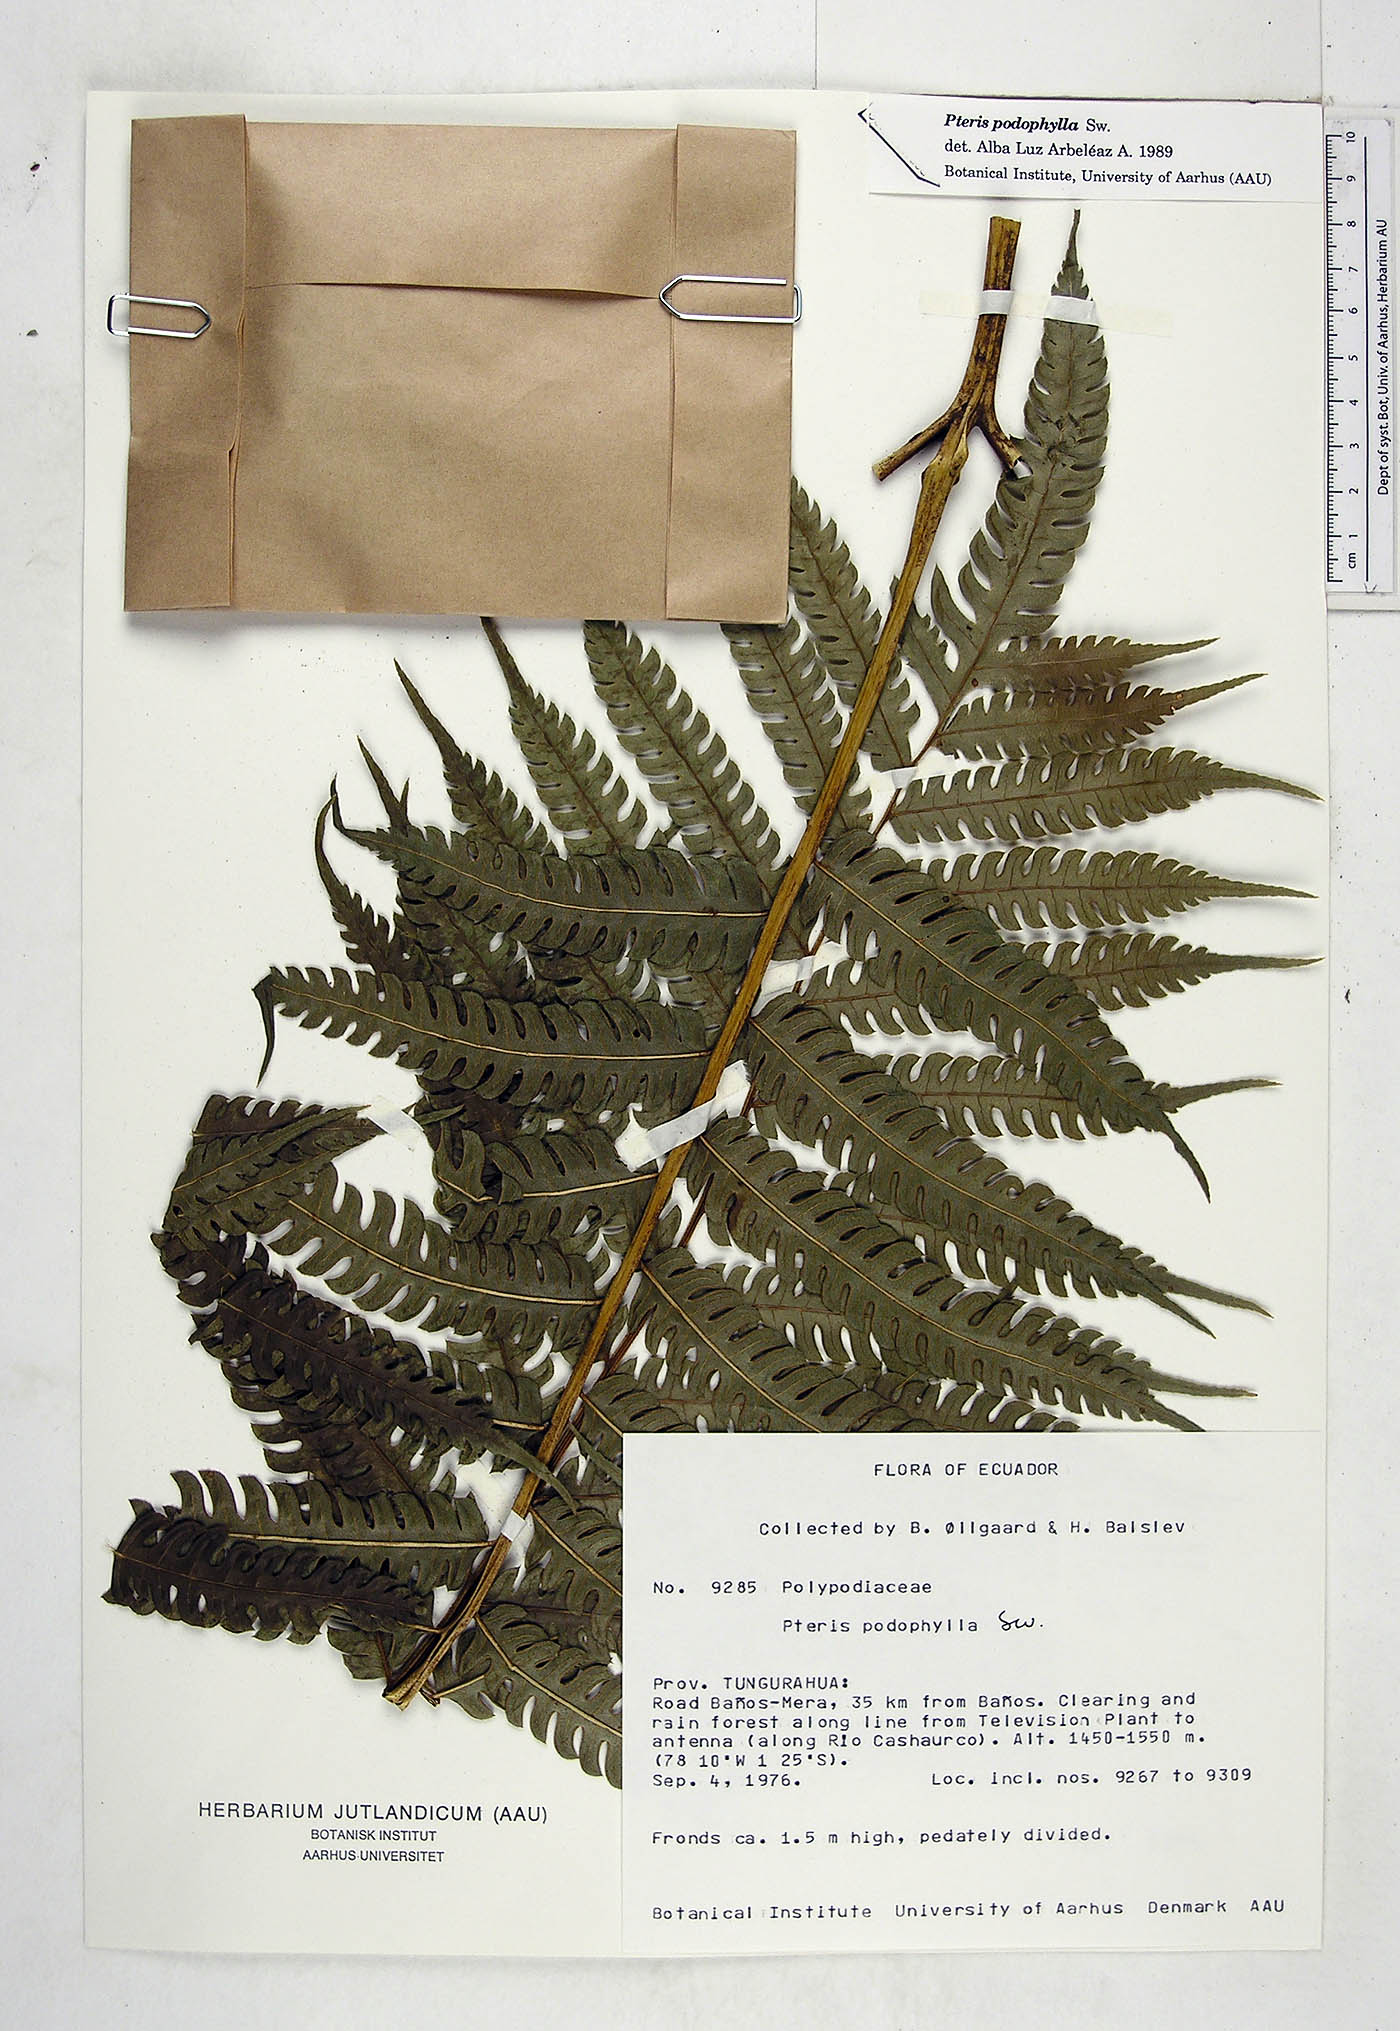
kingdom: Plantae
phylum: Tracheophyta
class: Polypodiopsida
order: Polypodiales
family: Pteridaceae
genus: Pteris
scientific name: Pteris podophylla
